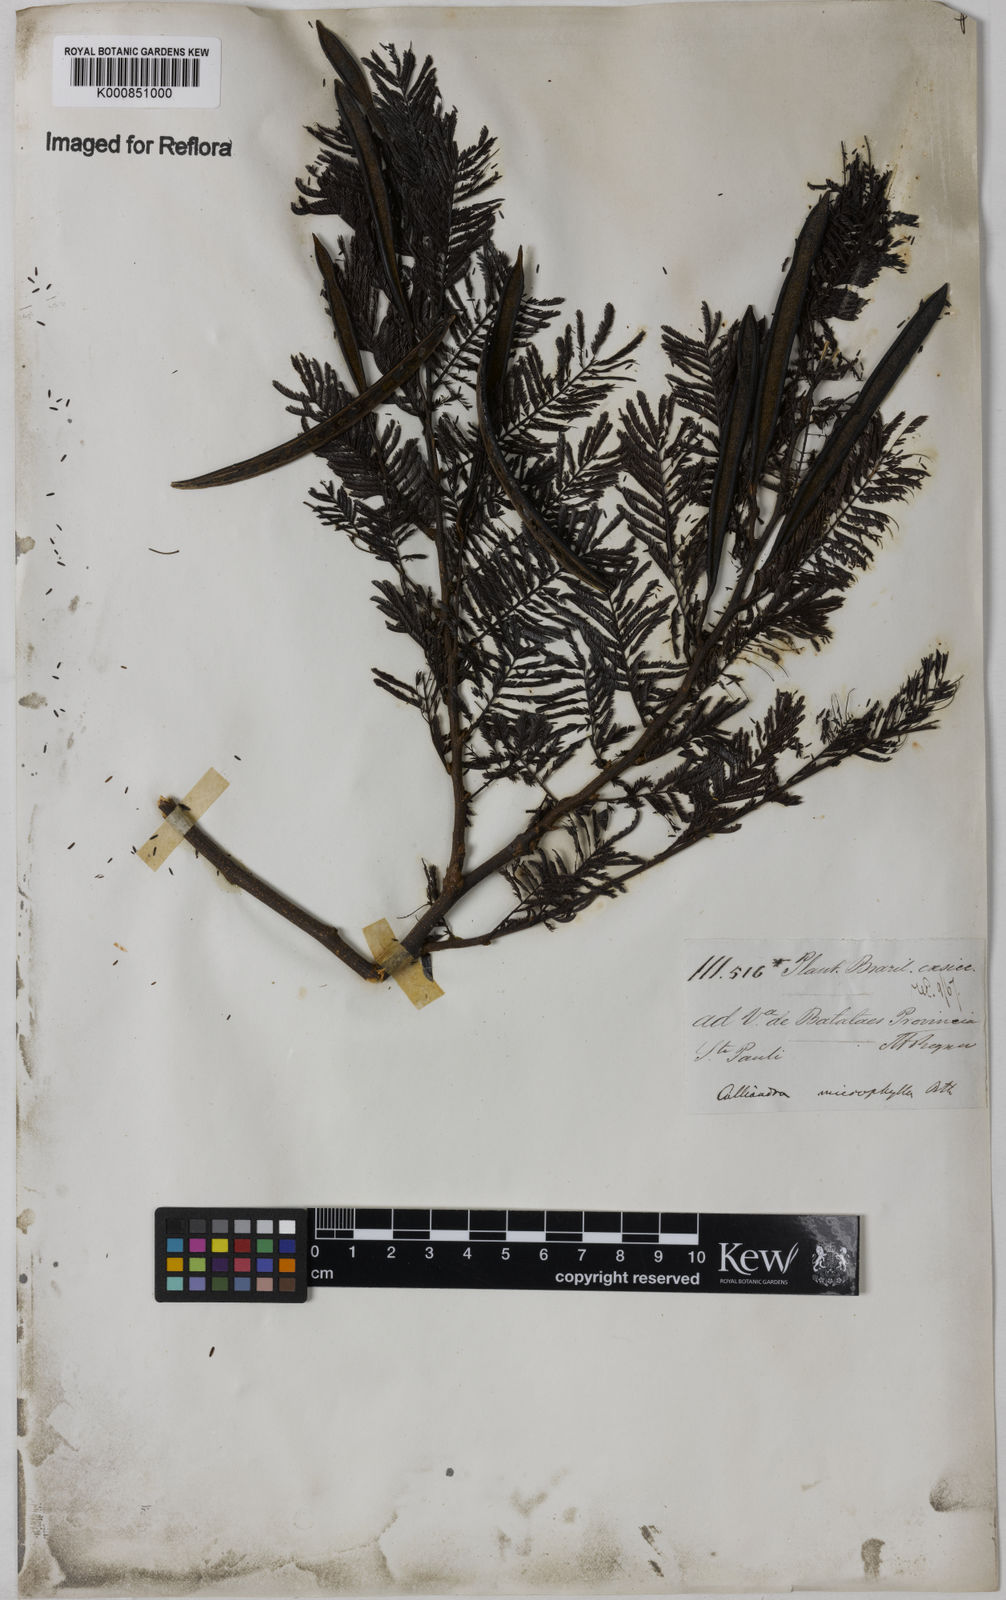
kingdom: Plantae
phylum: Tracheophyta
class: Magnoliopsida
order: Fabales
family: Fabaceae
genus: Calliandra
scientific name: Calliandra parvifolia
